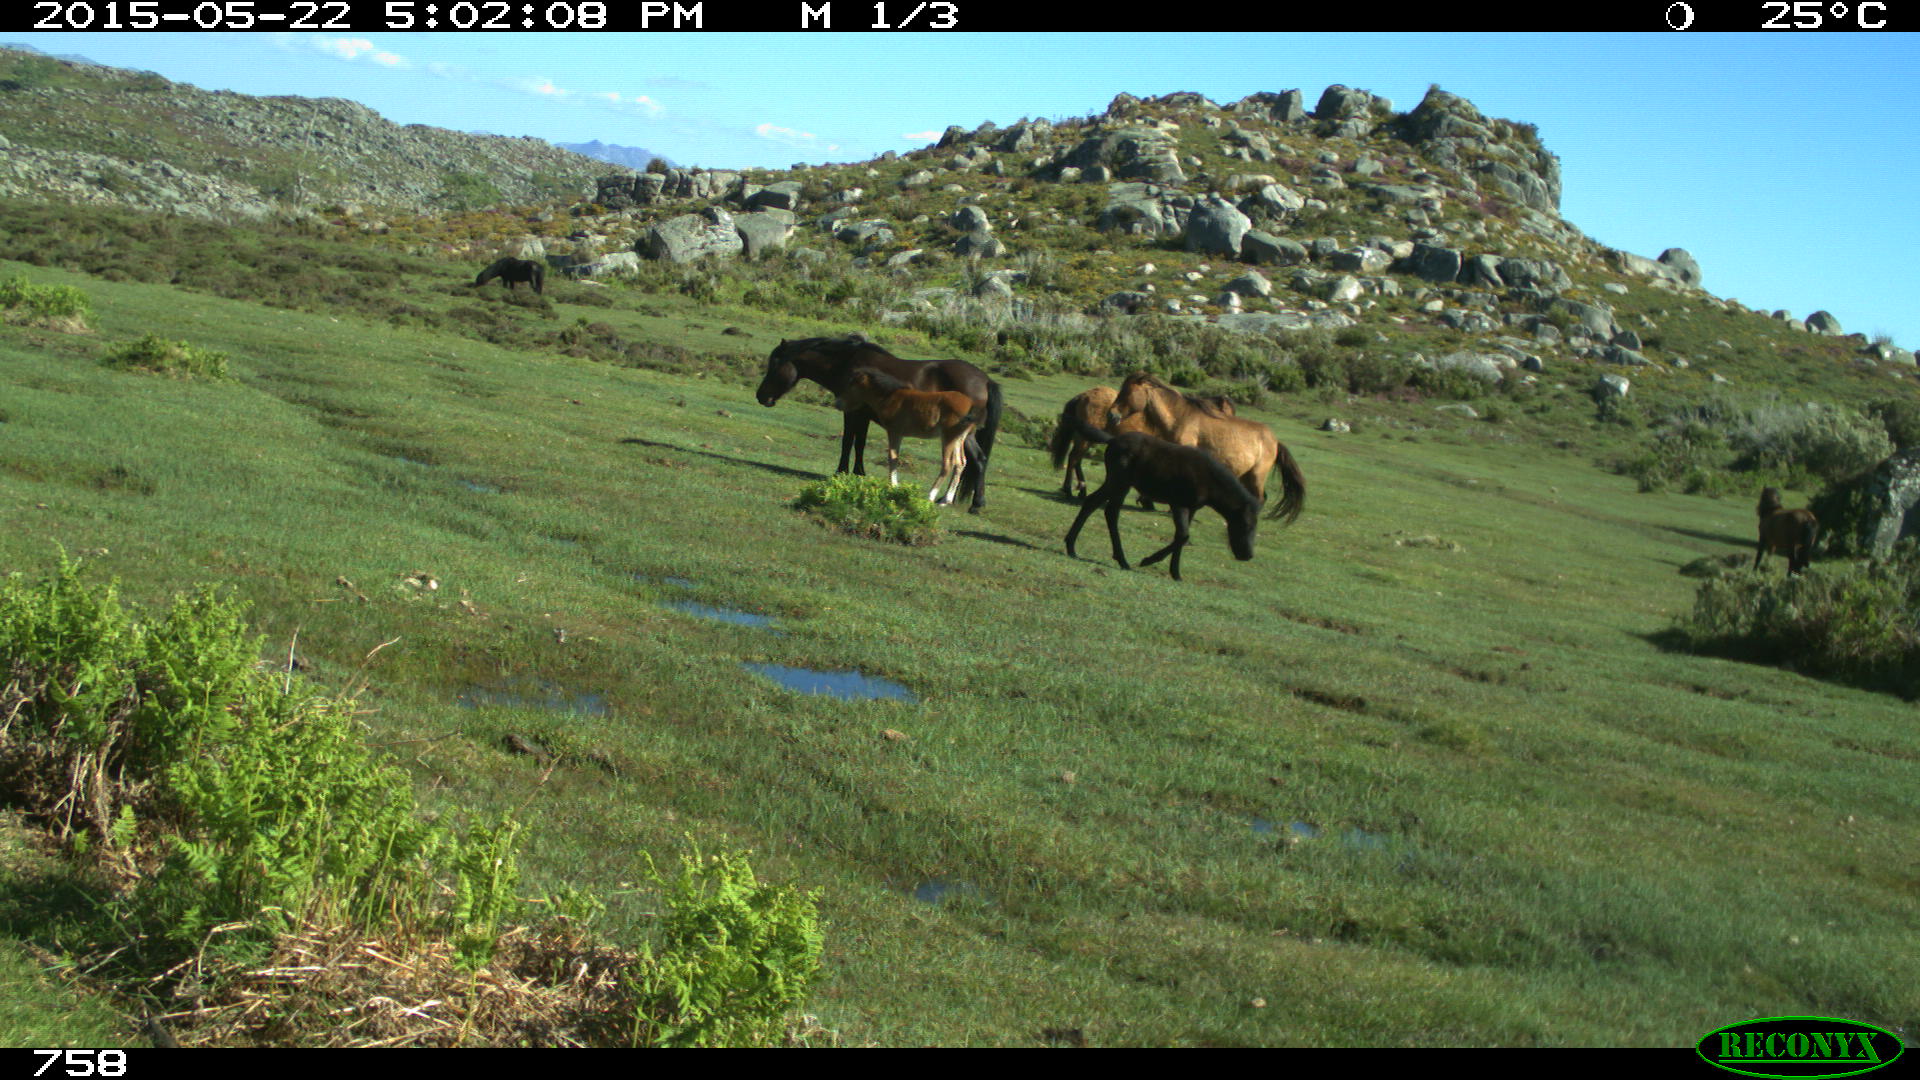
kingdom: Animalia
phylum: Chordata
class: Mammalia
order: Perissodactyla
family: Equidae
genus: Equus
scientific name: Equus caballus
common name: Horse
